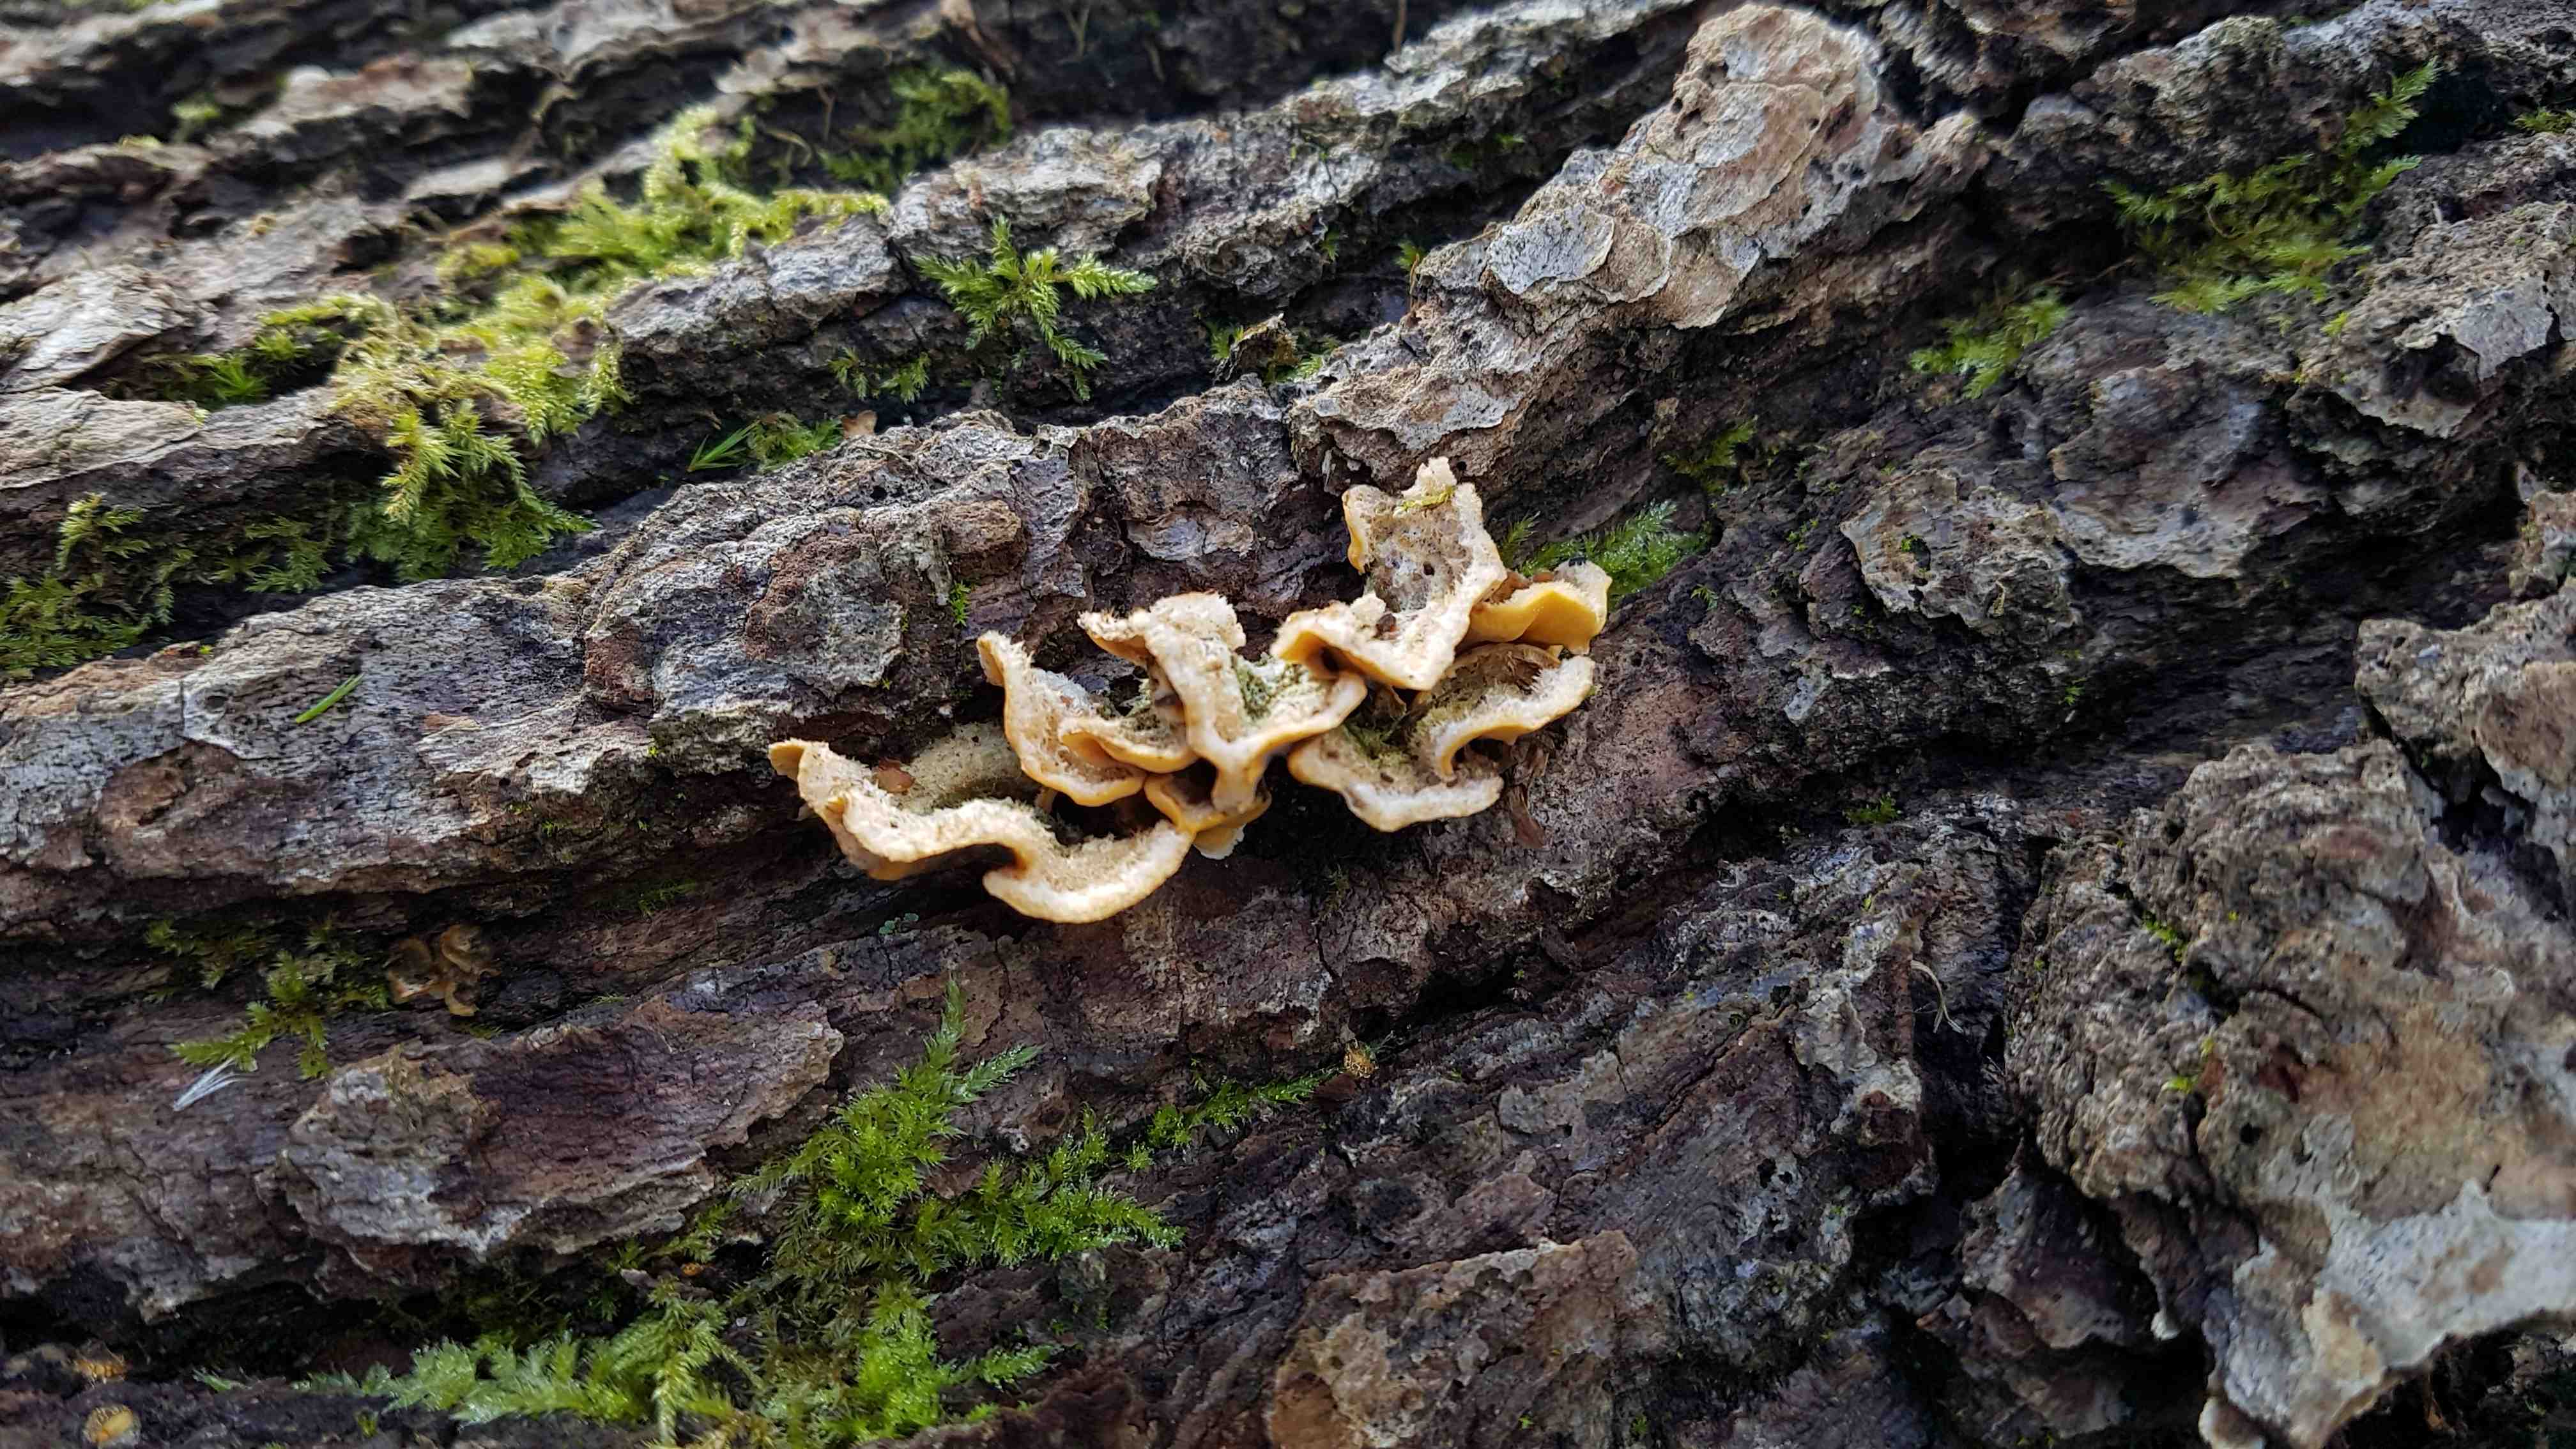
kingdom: Fungi
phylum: Basidiomycota
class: Agaricomycetes
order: Russulales
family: Stereaceae
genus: Stereum
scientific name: Stereum hirsutum
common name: håret lædersvamp
